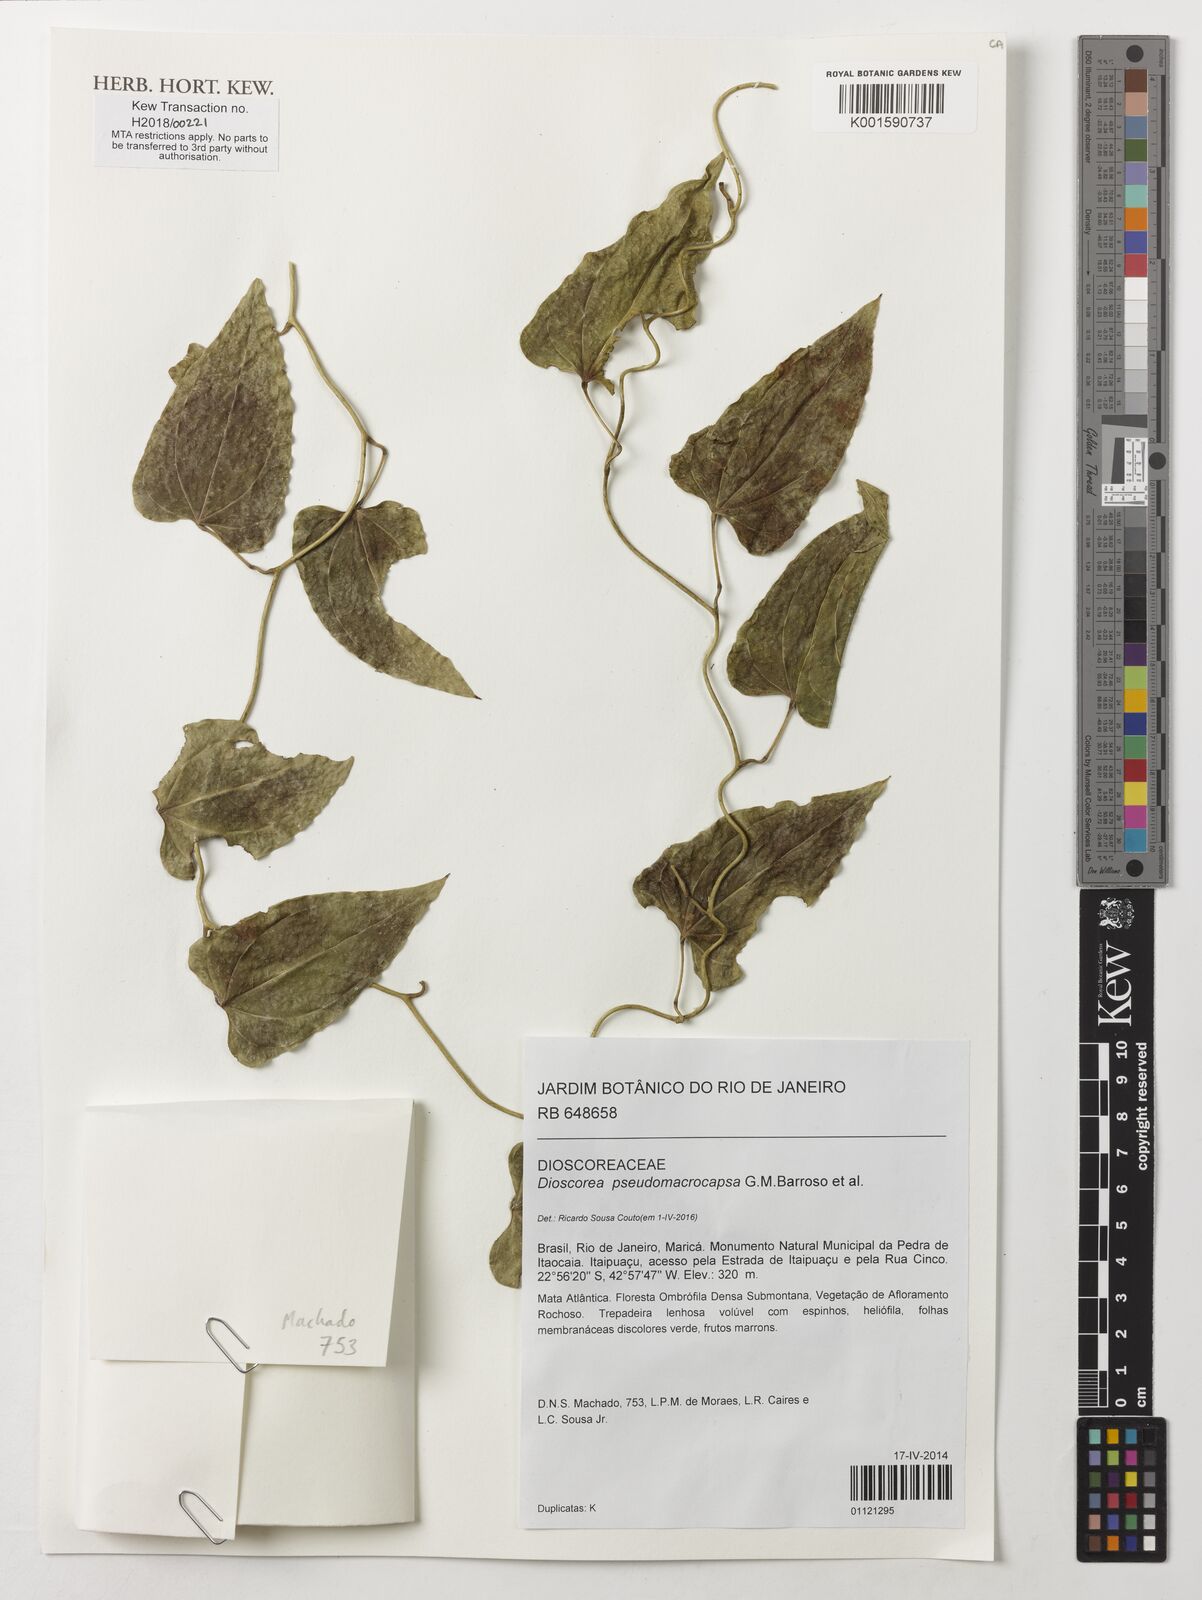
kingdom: Plantae
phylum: Tracheophyta
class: Liliopsida
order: Dioscoreales
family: Dioscoreaceae
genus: Dioscorea
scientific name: Dioscorea pseudomacrocapsa
